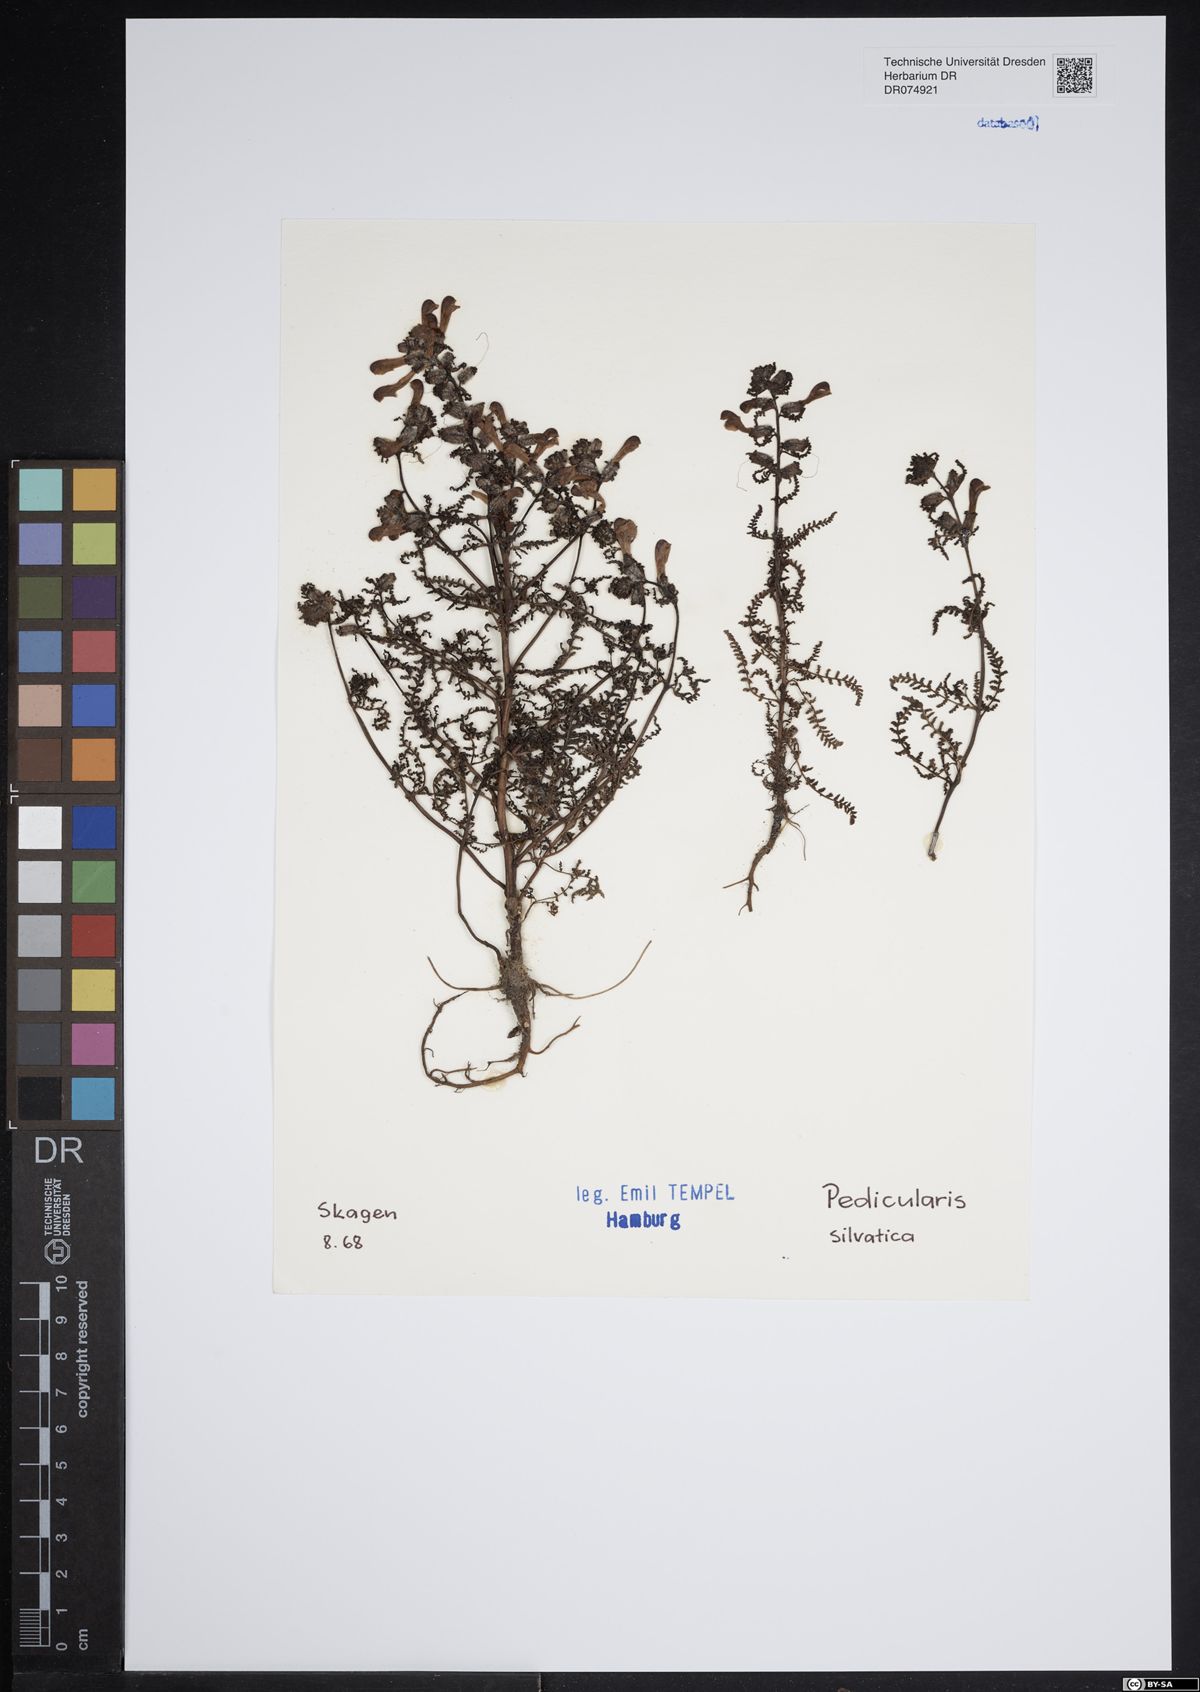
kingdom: Plantae
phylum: Tracheophyta
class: Magnoliopsida
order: Lamiales
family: Orobanchaceae
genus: Pedicularis
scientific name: Pedicularis sylvatica
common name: Lousewort
